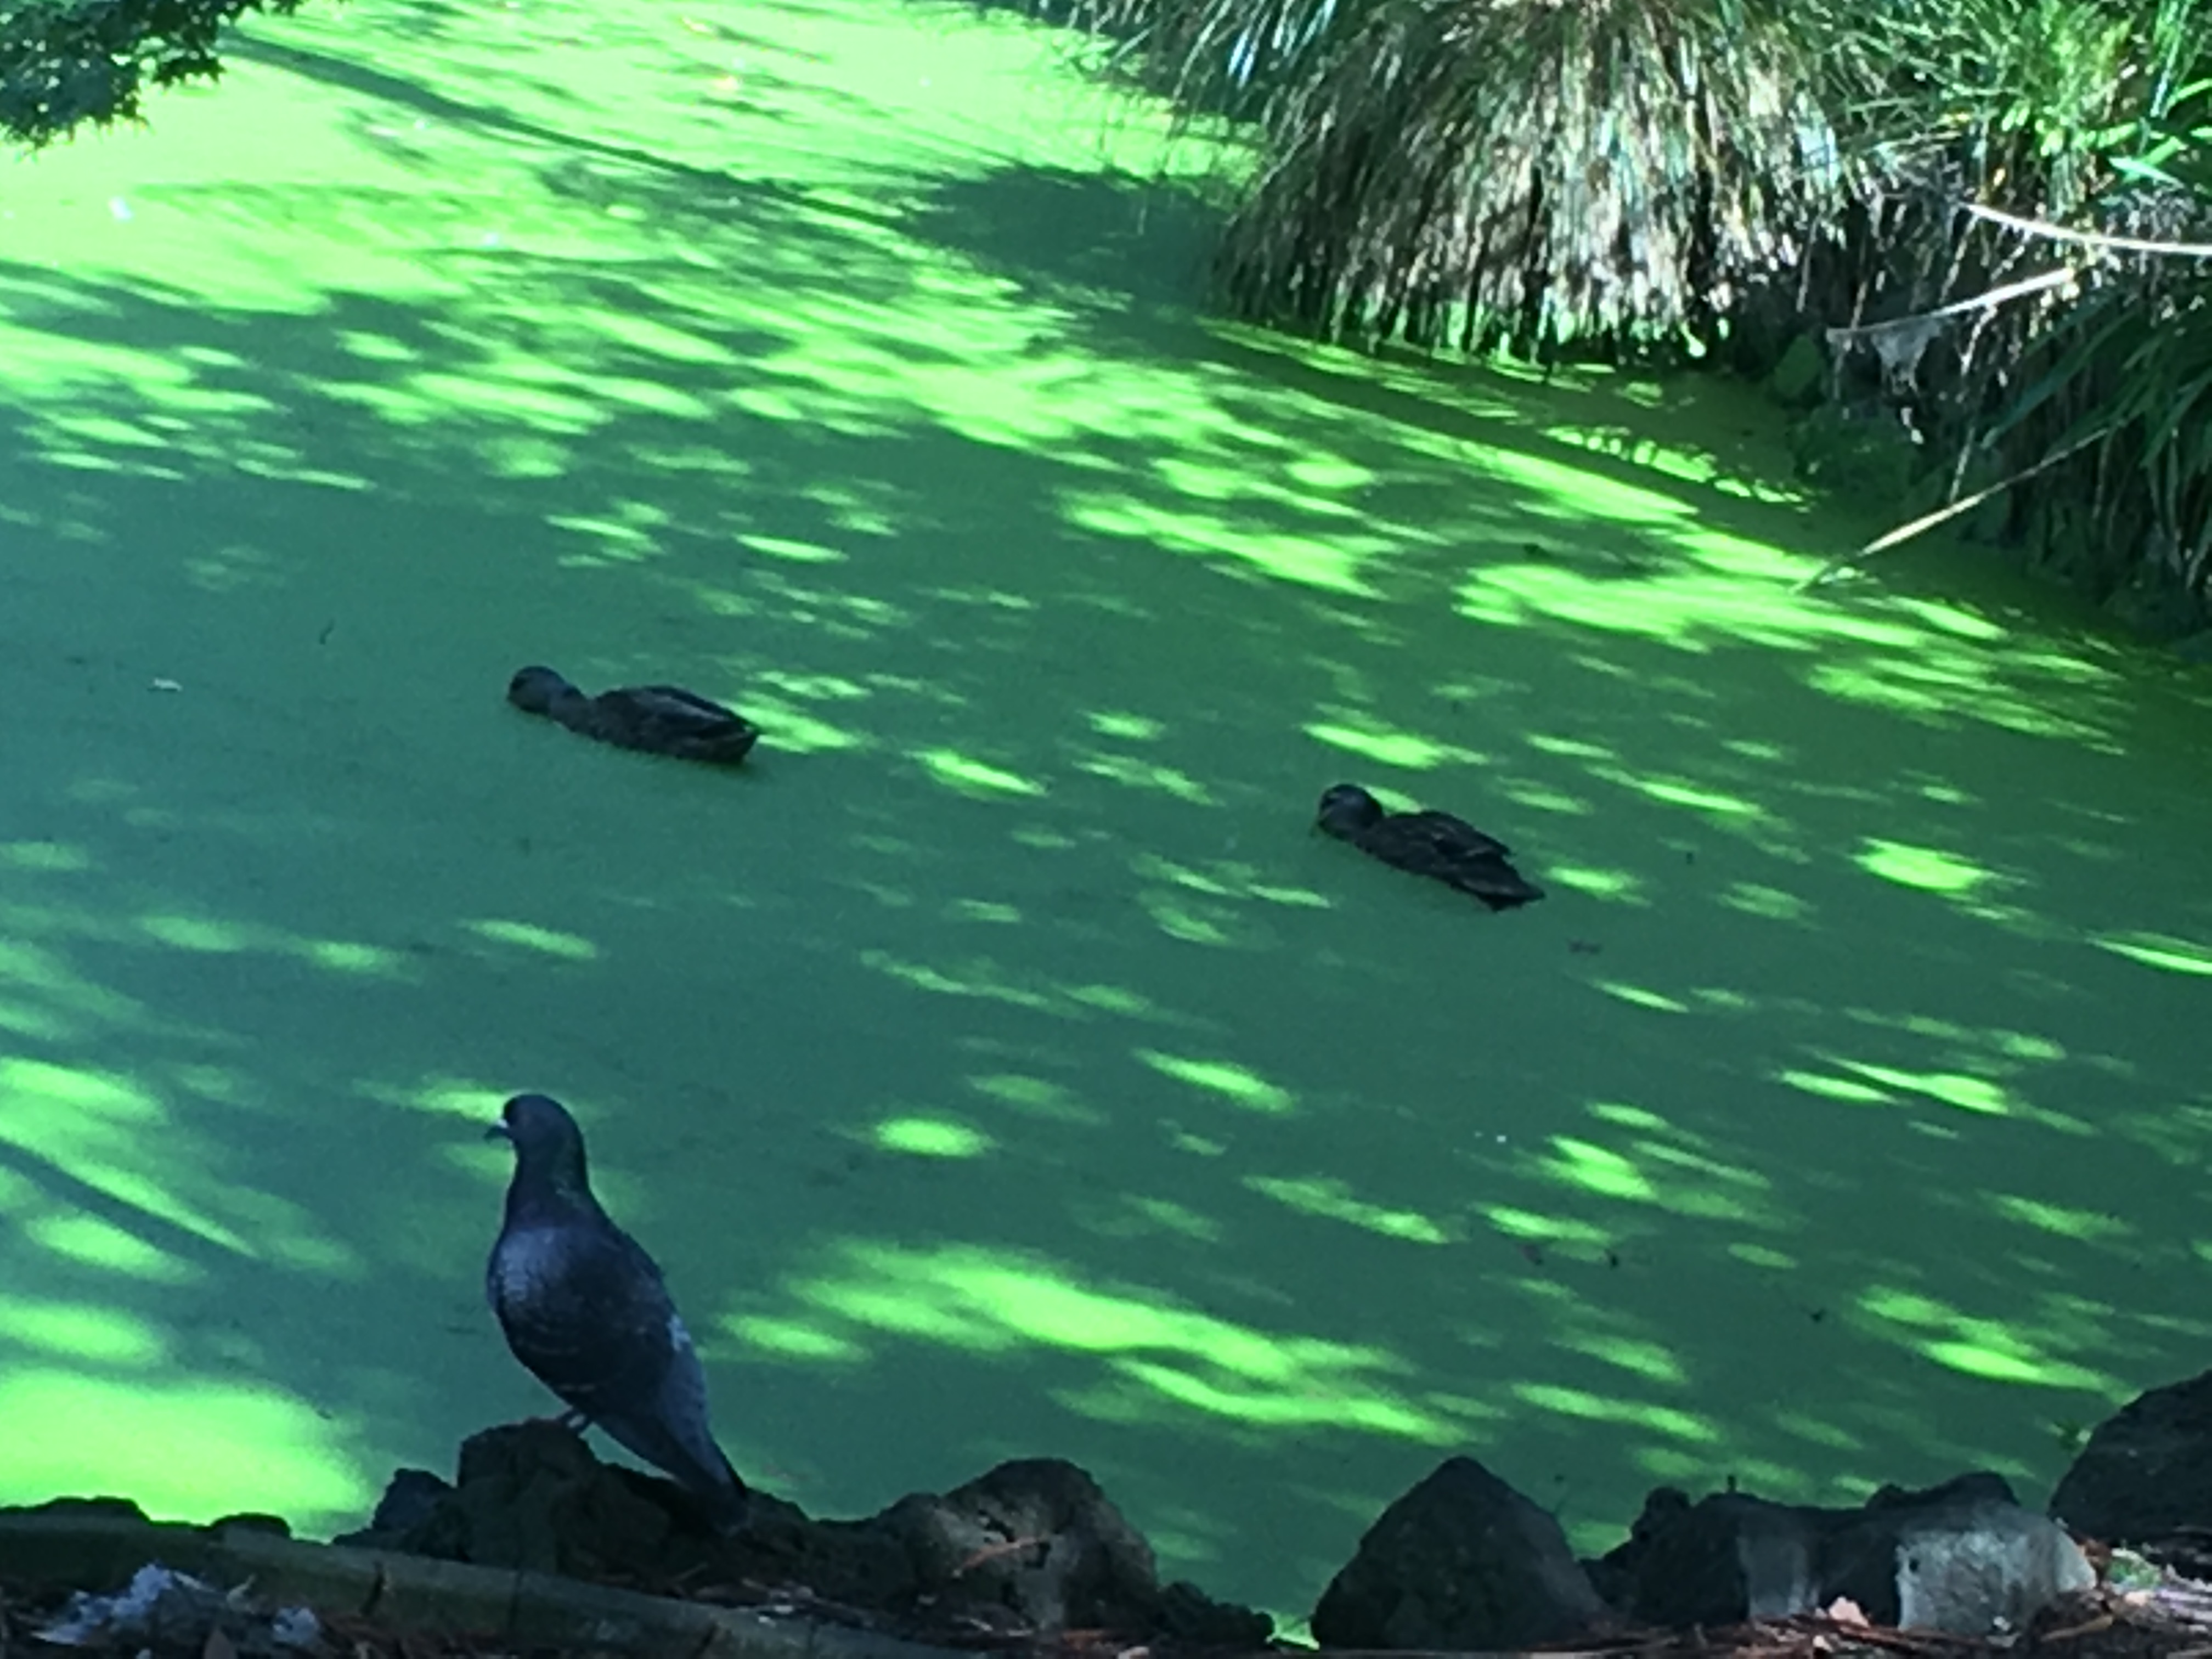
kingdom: Plantae
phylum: Tracheophyta
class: Liliopsida
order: Alismatales
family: Araceae
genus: Lemna
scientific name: Lemna disperma
